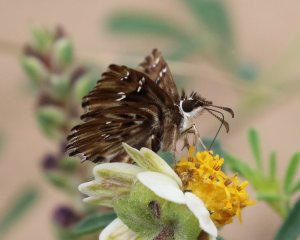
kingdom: Animalia
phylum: Arthropoda
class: Insecta
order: Lepidoptera
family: Hesperiidae
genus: Celotes
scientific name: Celotes nessus
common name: Common Streaky-Skipper
